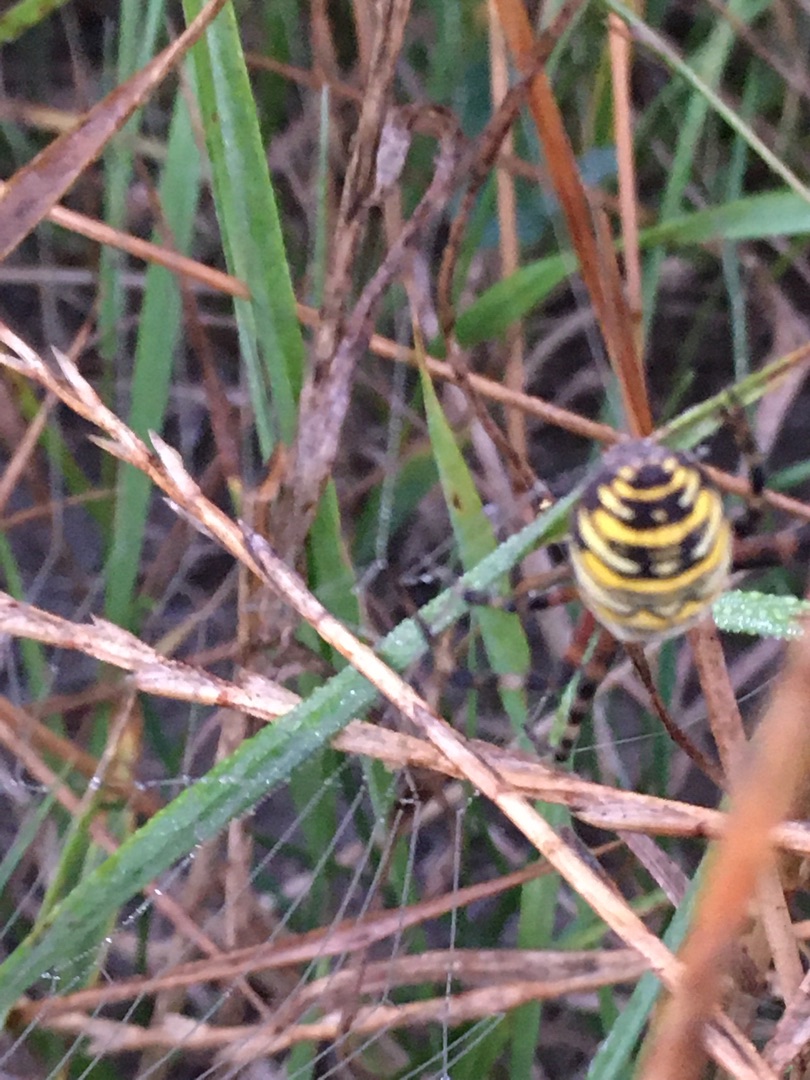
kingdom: Animalia
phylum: Arthropoda
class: Arachnida
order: Araneae
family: Araneidae
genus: Argiope
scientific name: Argiope bruennichi
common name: Hvepseedderkop
